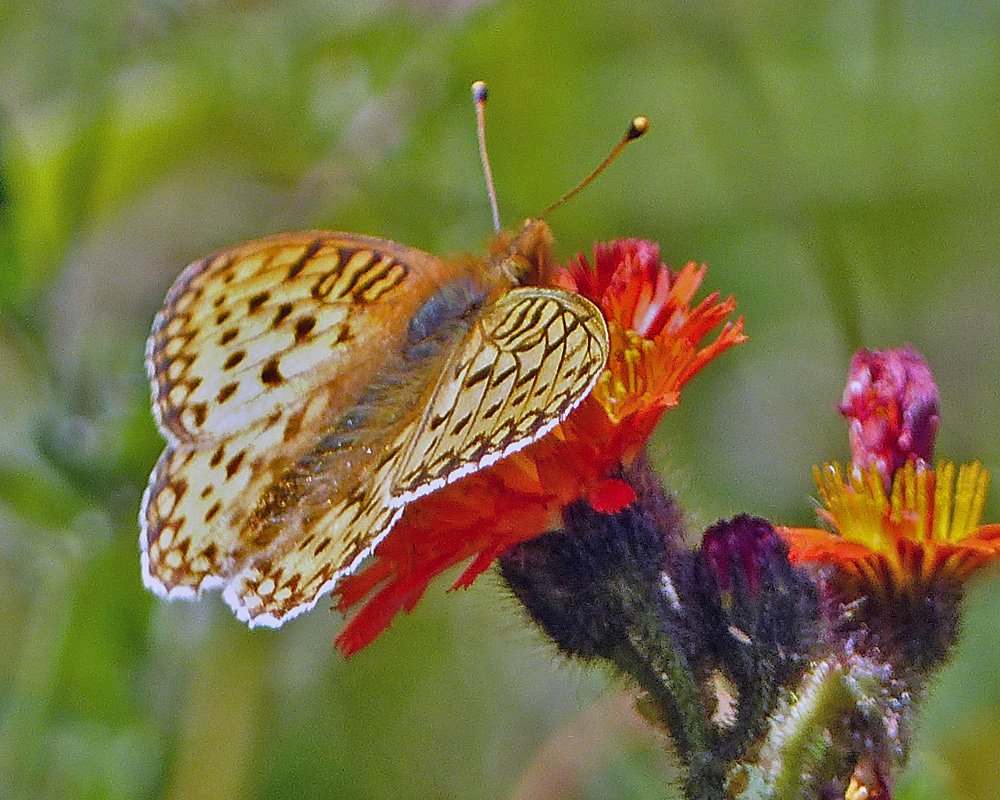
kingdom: Animalia
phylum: Arthropoda
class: Insecta
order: Lepidoptera
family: Nymphalidae
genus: Speyeria
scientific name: Speyeria mormonia
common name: Mormon Fritillary
